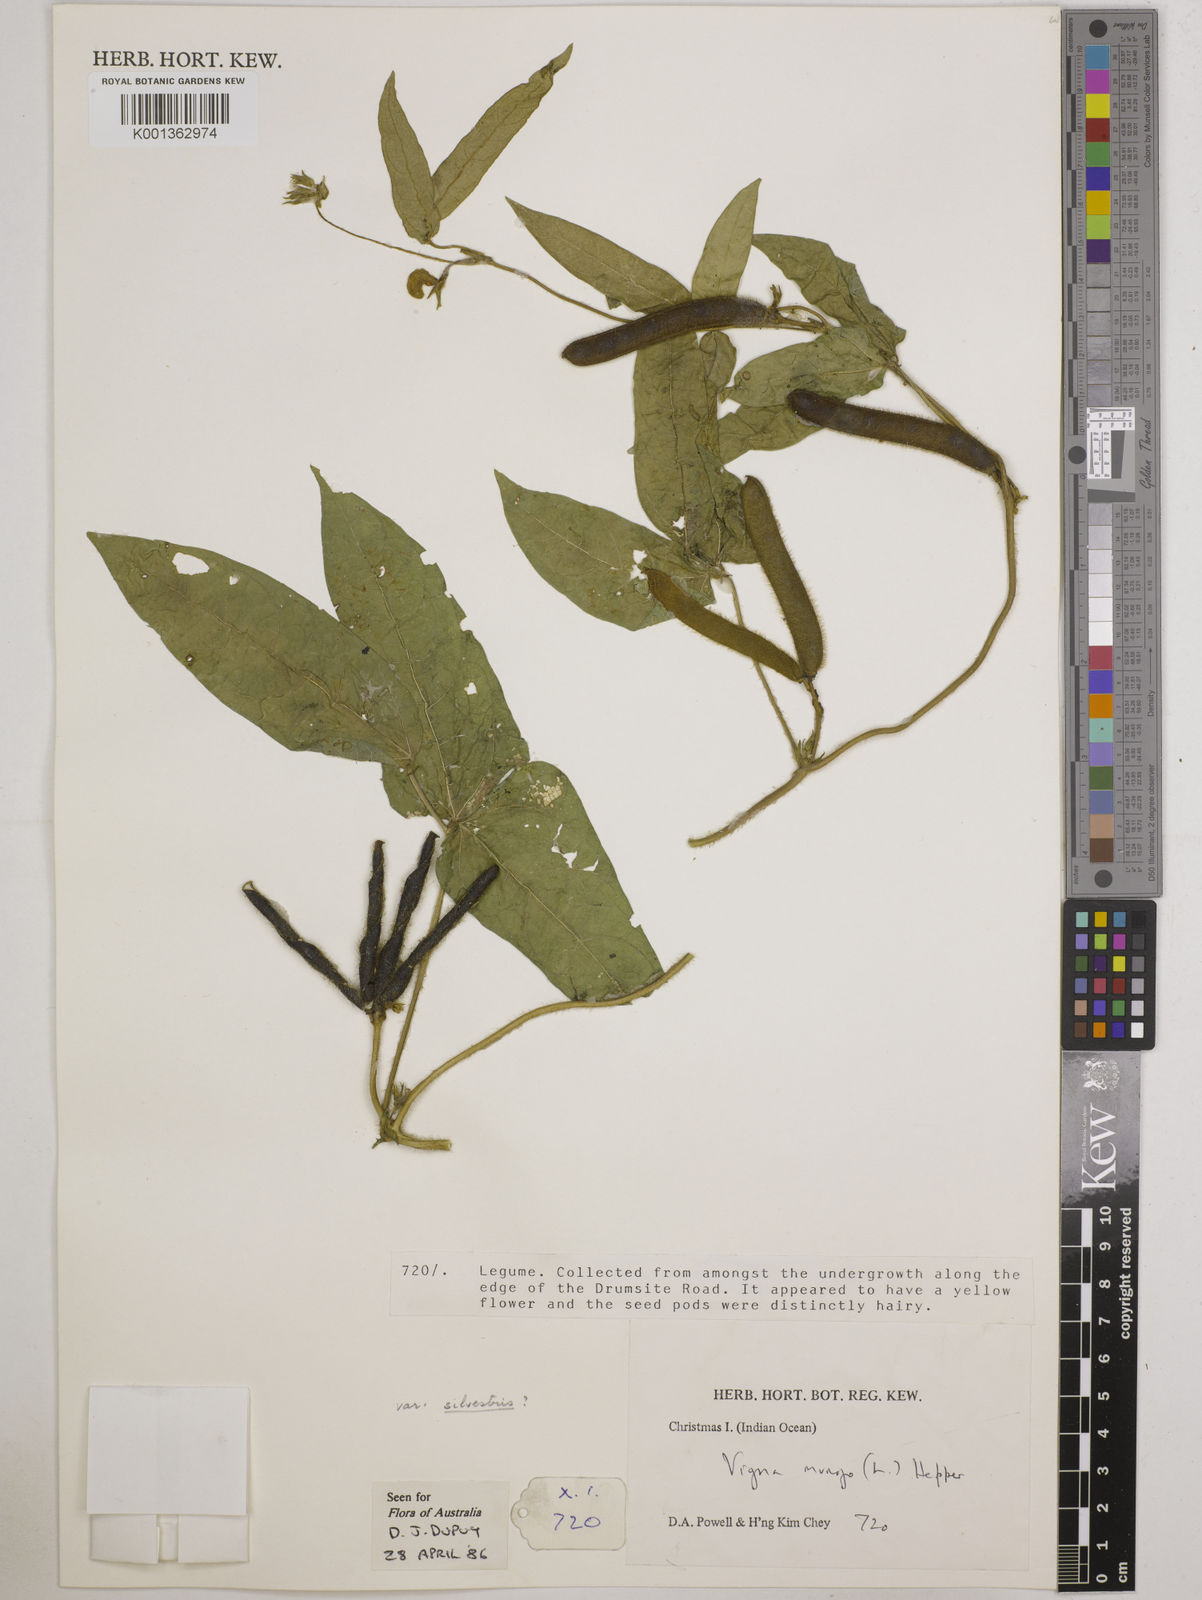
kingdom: Plantae
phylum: Tracheophyta
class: Magnoliopsida
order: Fabales
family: Fabaceae
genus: Vigna
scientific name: Vigna mungo
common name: Black gram
